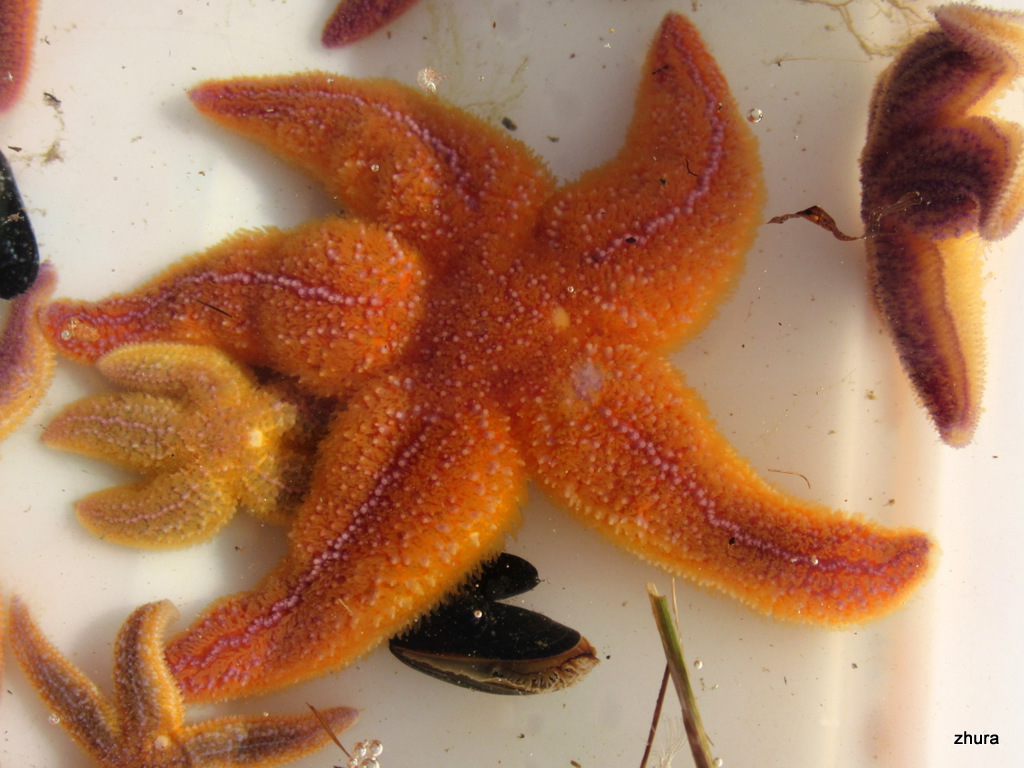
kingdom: Animalia
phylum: Echinodermata
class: Asteroidea
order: Forcipulatida
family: Asteriidae
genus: Asterias
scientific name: Asterias rubens
